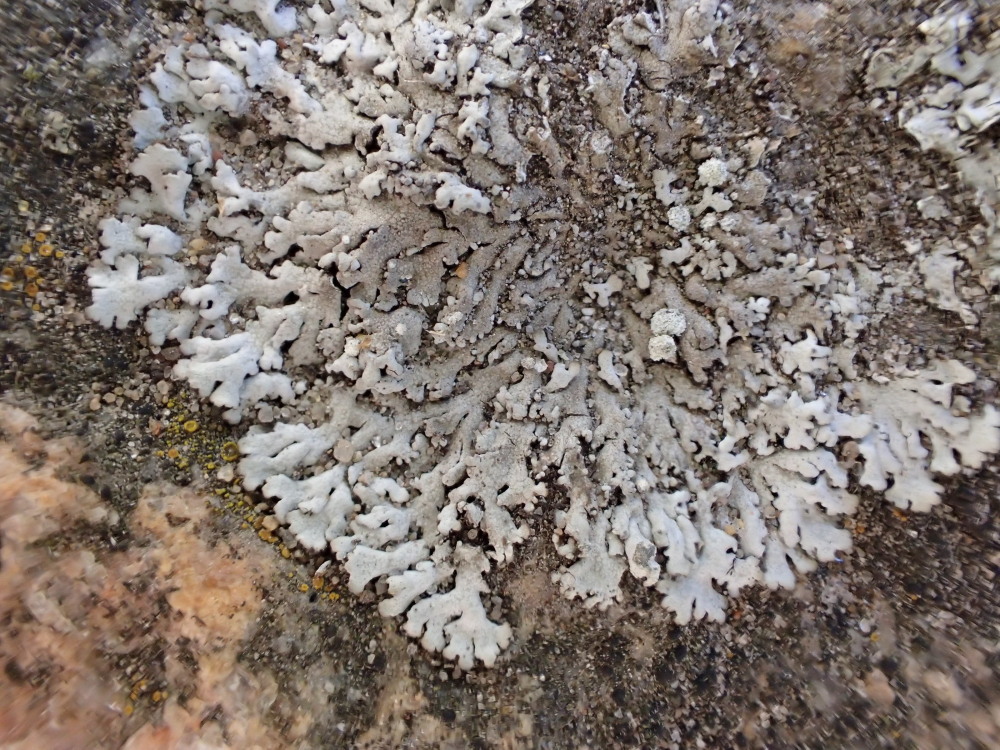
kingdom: Fungi
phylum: Ascomycota
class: Lecanoromycetes
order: Caliciales
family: Physciaceae
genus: Physcia
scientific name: Physcia caesia
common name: blågrå rosetlav
